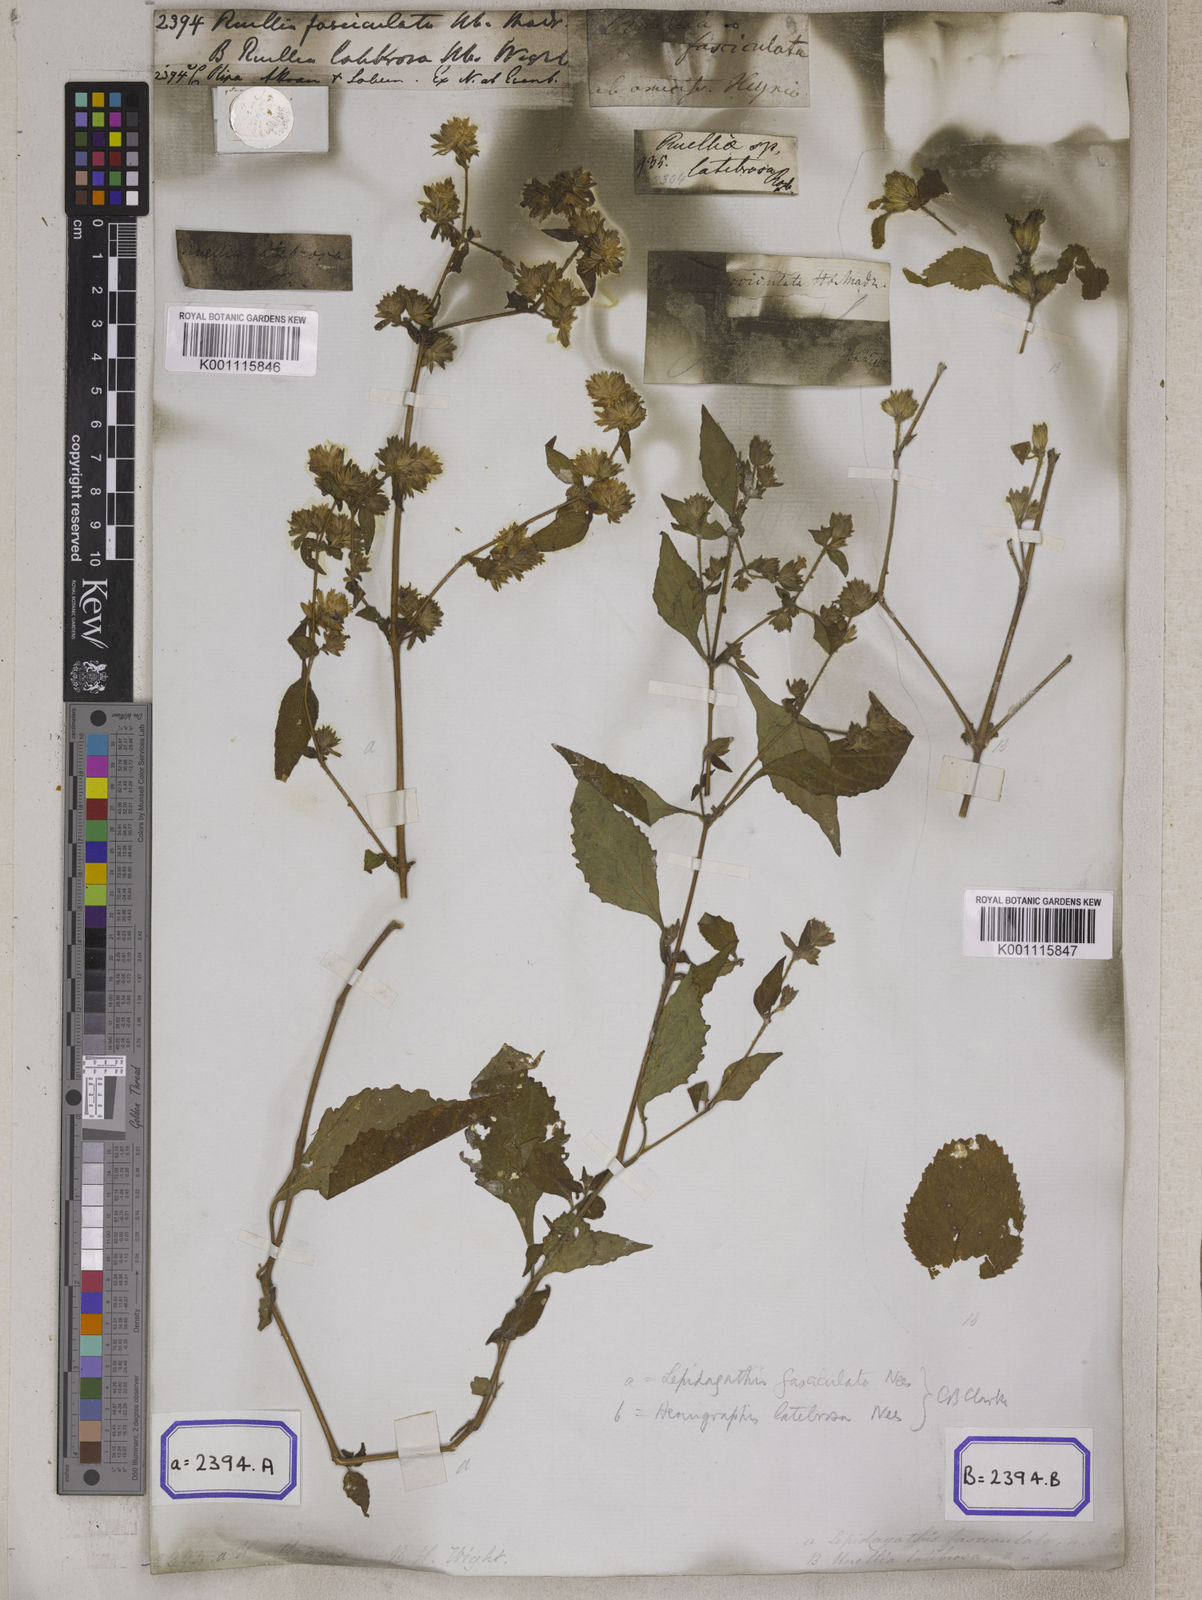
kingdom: Plantae
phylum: Tracheophyta
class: Magnoliopsida
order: Lamiales
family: Acanthaceae
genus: Strobilanthes
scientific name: Strobilanthes pavala
